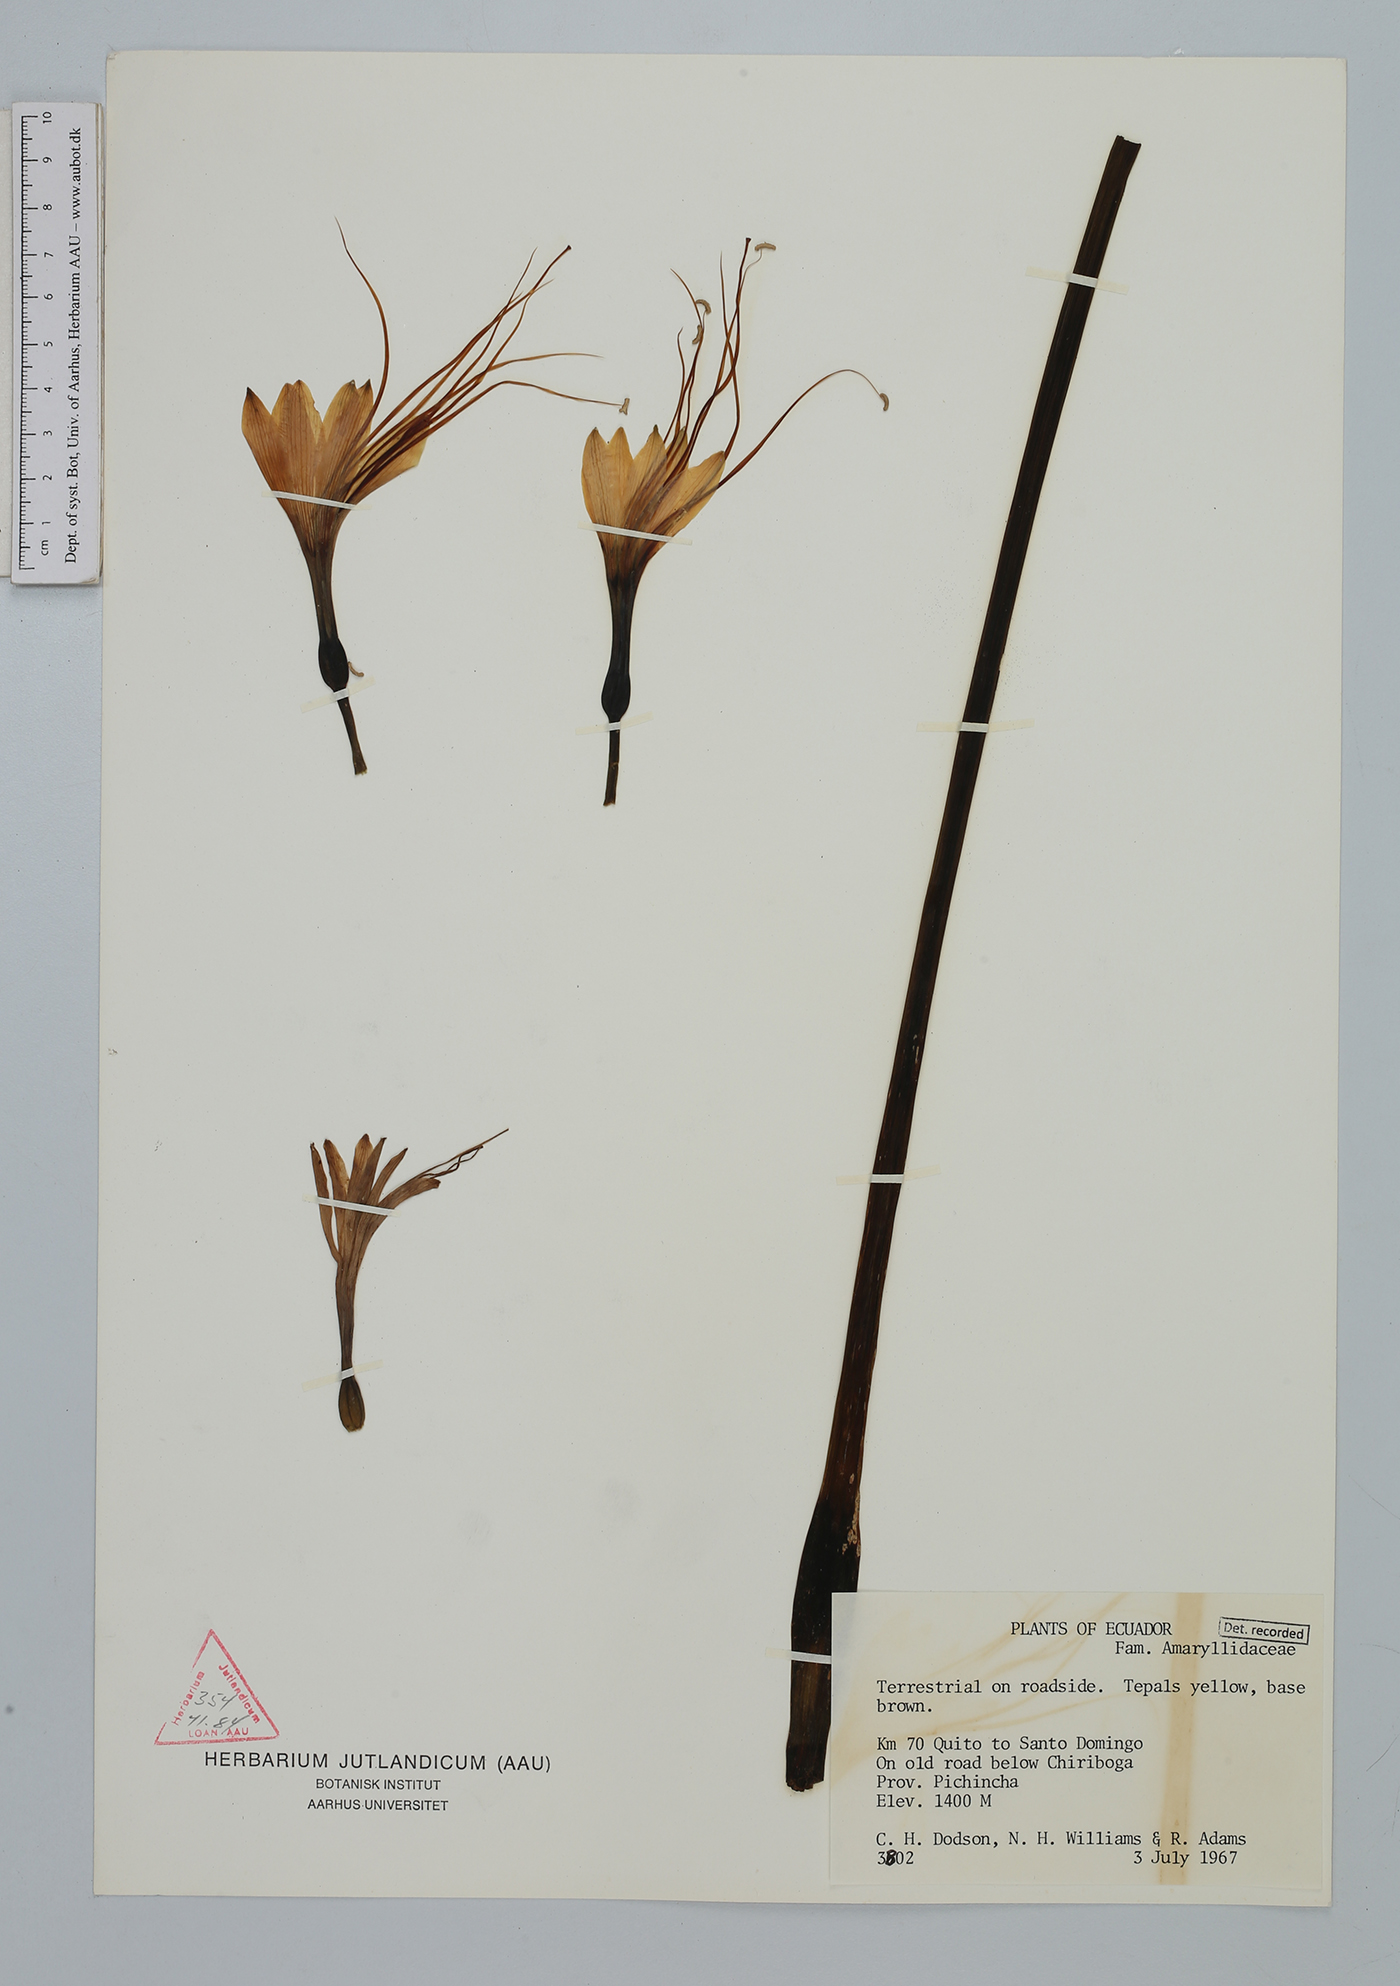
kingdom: Plantae
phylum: Tracheophyta
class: Liliopsida
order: Asparagales
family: Amaryllidaceae
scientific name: Amaryllidaceae
